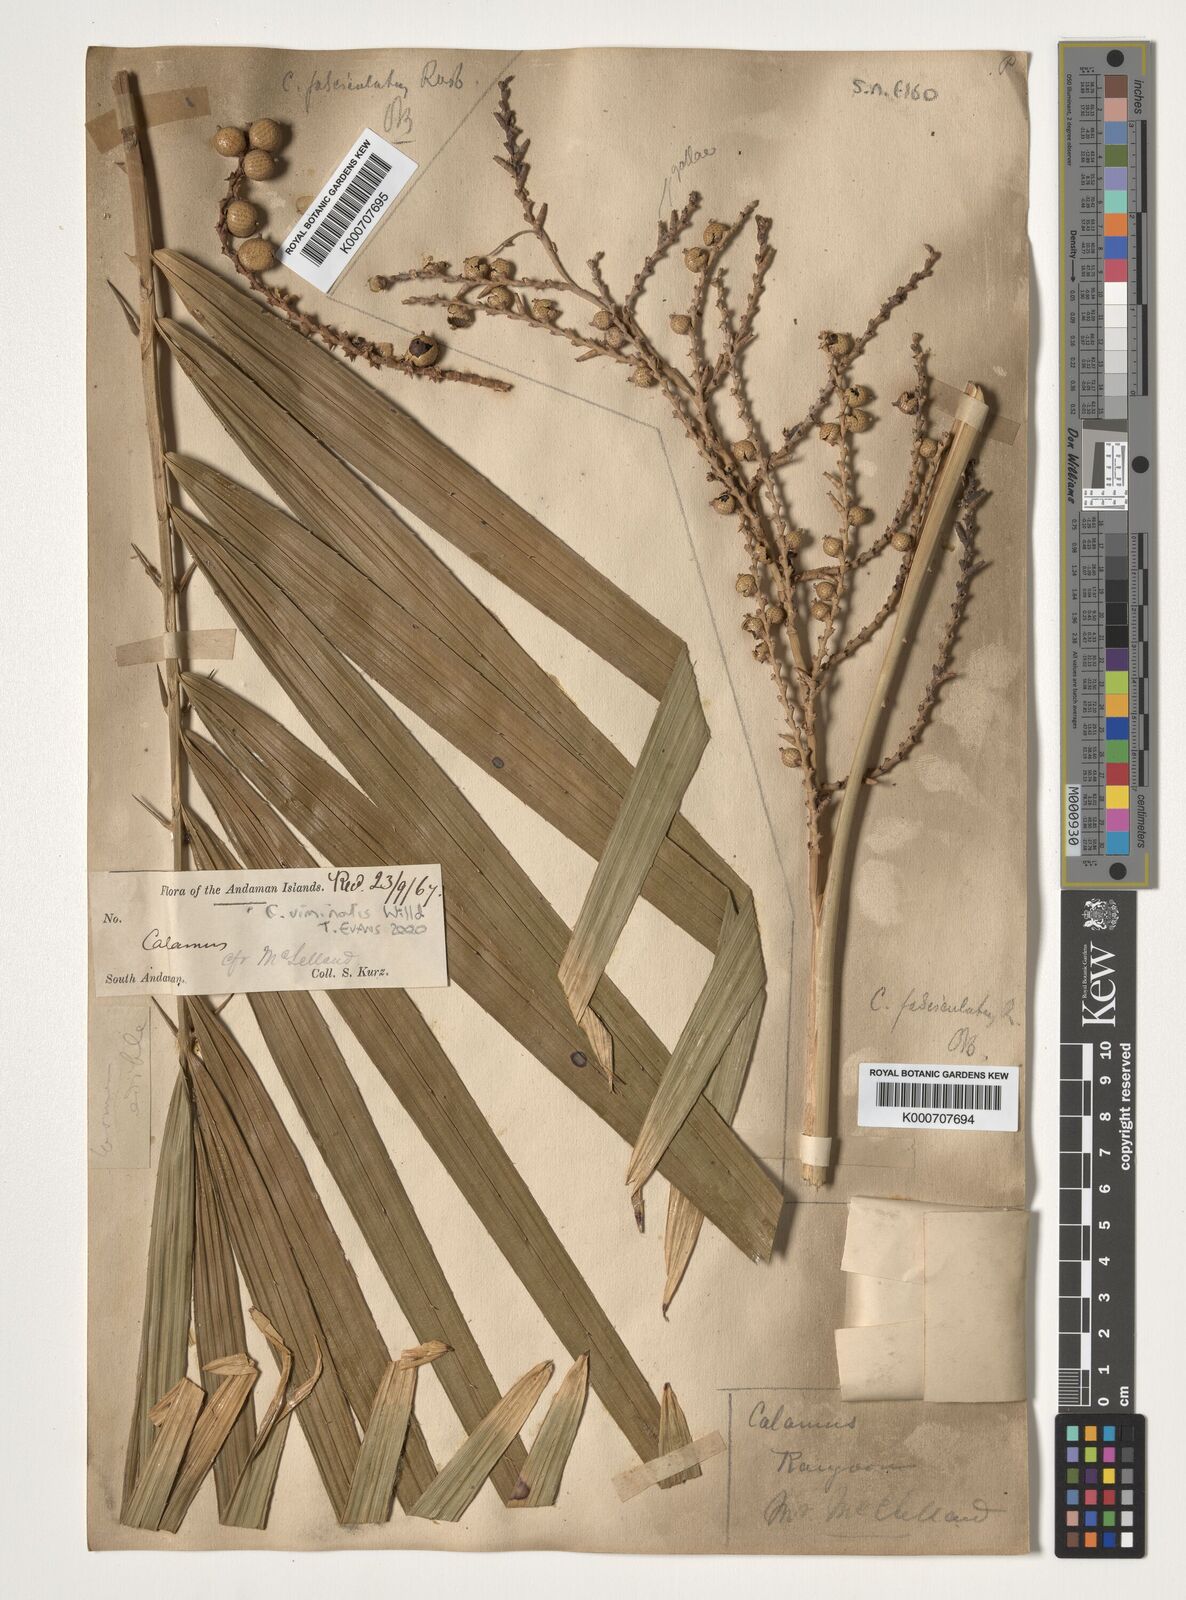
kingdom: Plantae
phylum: Tracheophyta
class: Liliopsida
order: Arecales
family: Arecaceae
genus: Calamus
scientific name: Calamus viminalis
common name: Osier-like rattan palm
